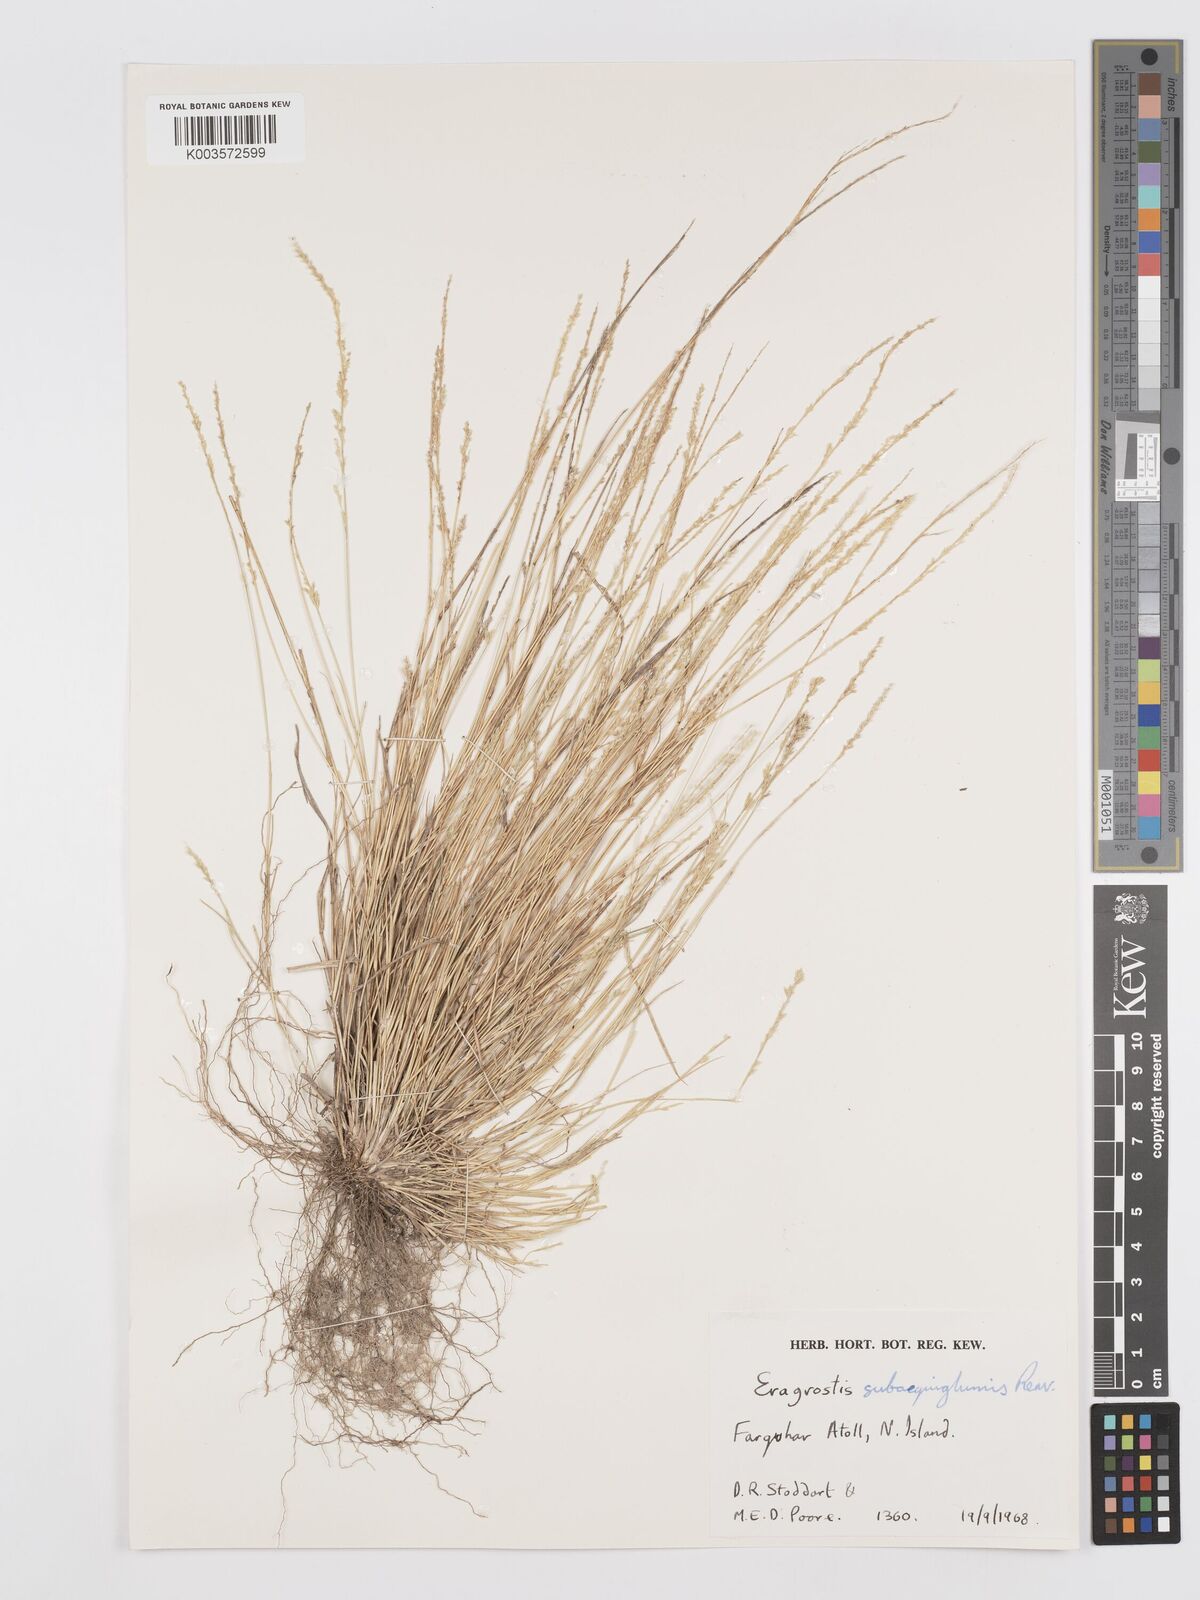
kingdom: Plantae
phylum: Tracheophyta
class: Liliopsida
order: Poales
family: Poaceae
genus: Eragrostis
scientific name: Eragrostis subaequiglumis
